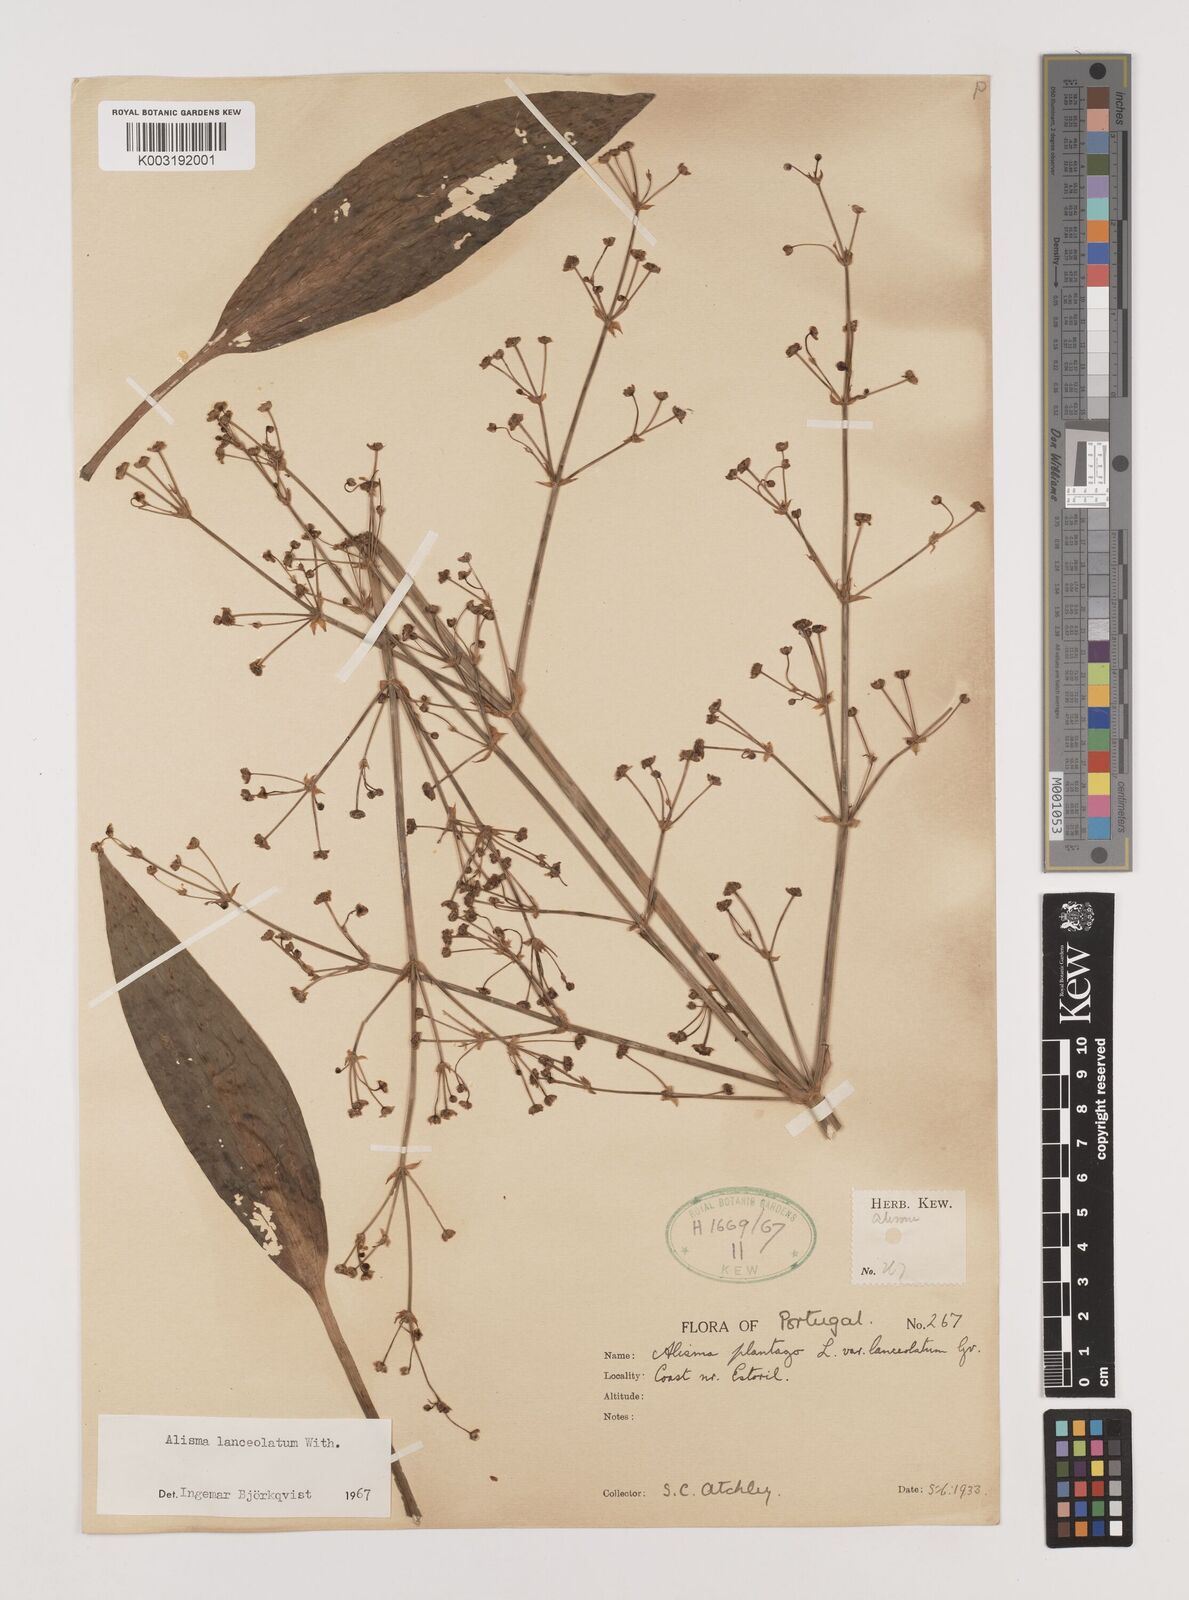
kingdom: Plantae
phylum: Tracheophyta
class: Liliopsida
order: Alismatales
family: Alismataceae
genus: Alisma
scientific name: Alisma lanceolatum
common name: Narrow-leaved water-plantain
